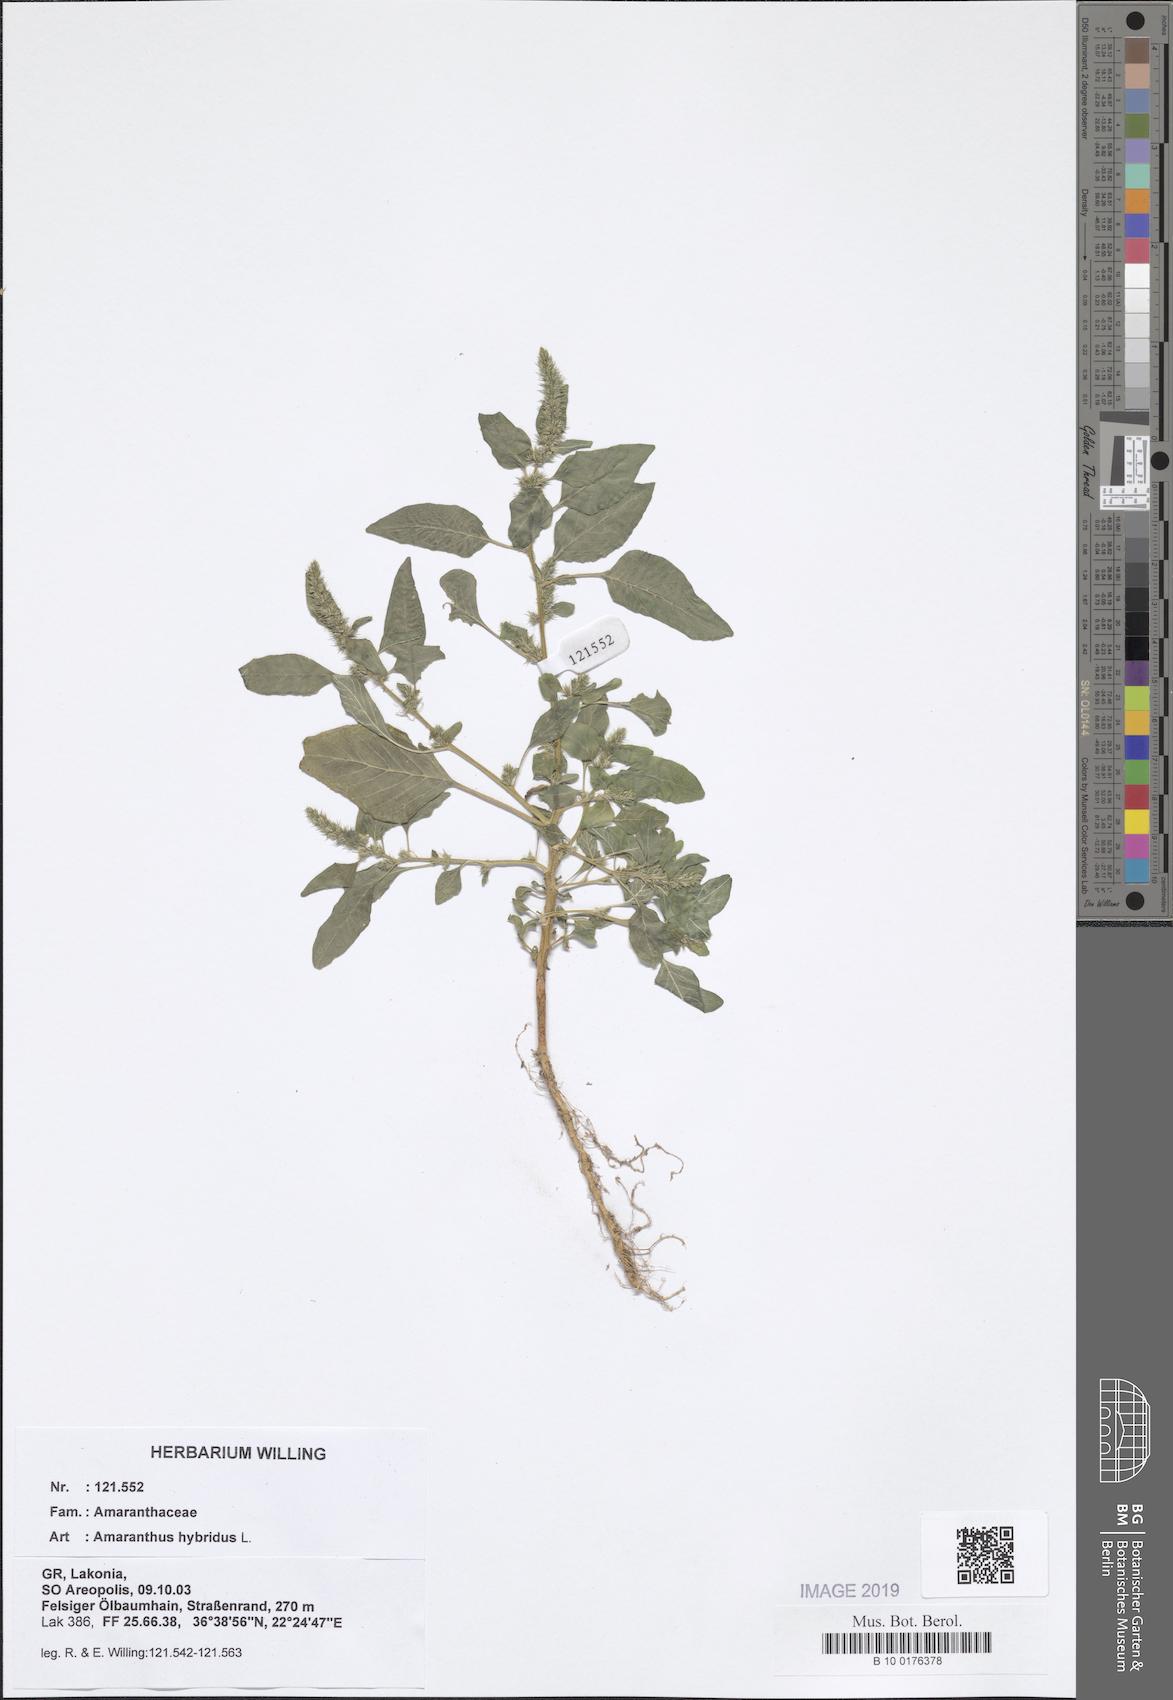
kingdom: Plantae
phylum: Tracheophyta
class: Magnoliopsida
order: Caryophyllales
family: Amaranthaceae
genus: Amaranthus
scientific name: Amaranthus hybridus
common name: Green amaranth
